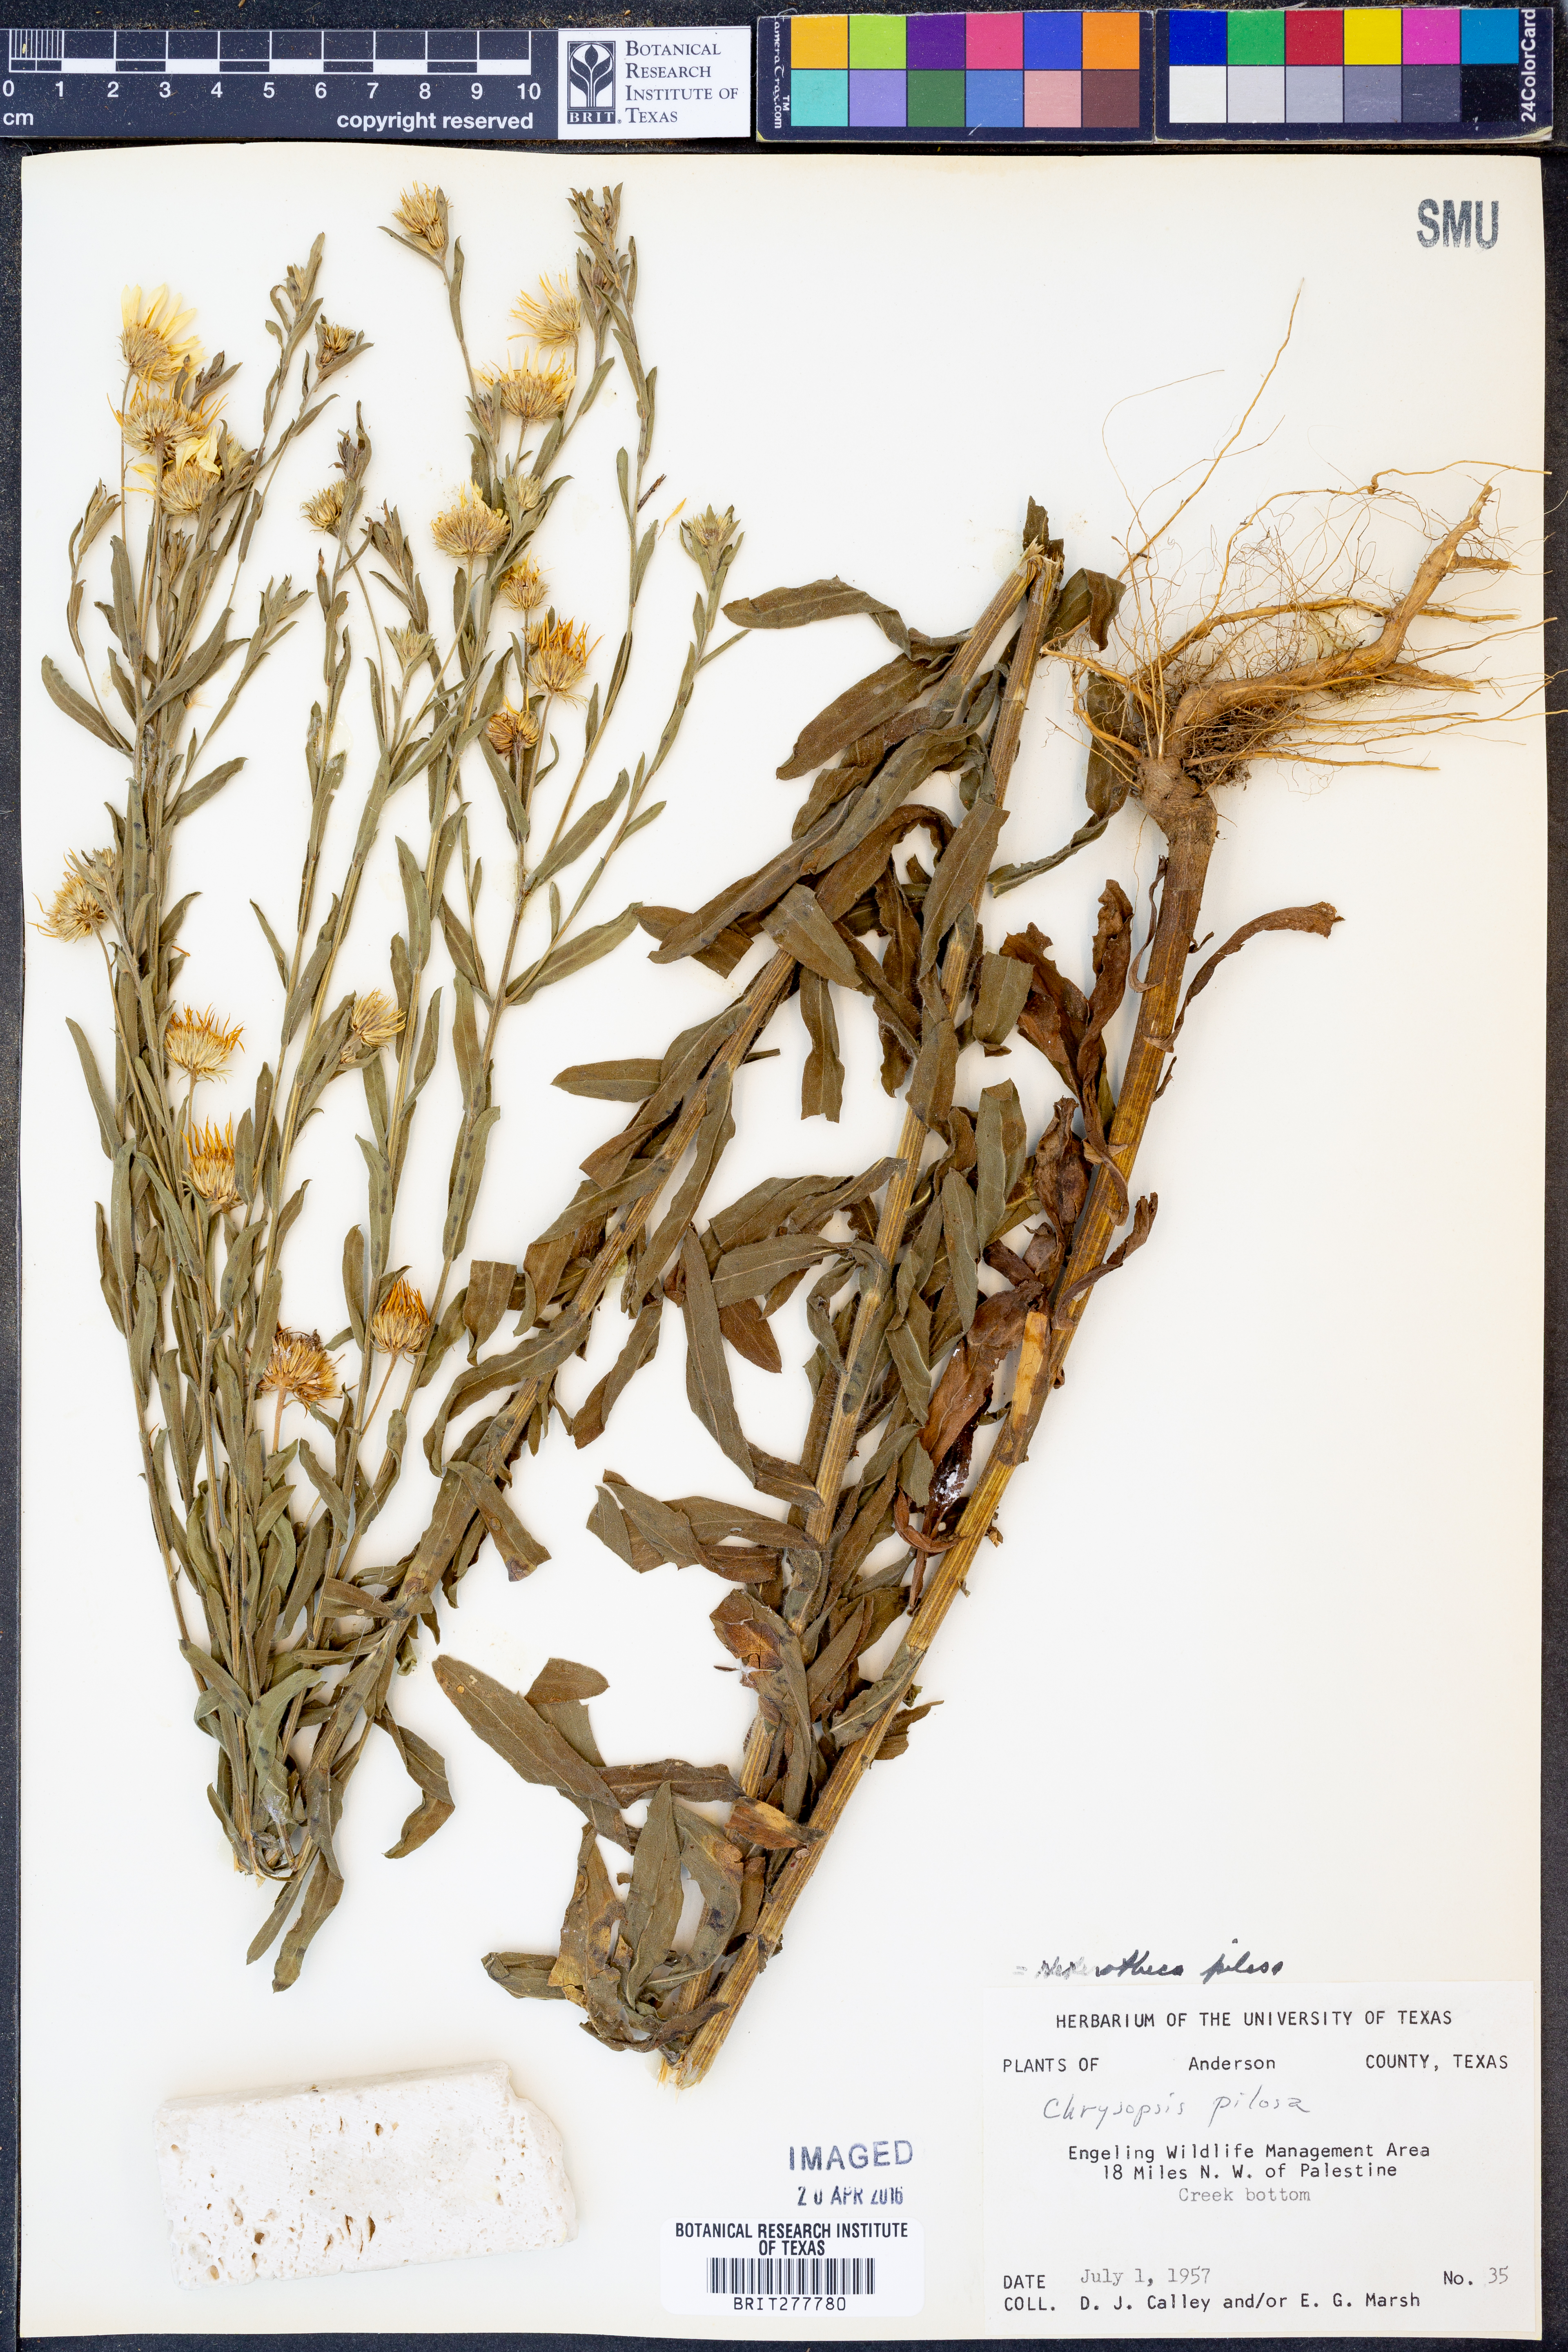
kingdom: Plantae
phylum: Tracheophyta
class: Magnoliopsida
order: Asterales
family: Asteraceae
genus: Bradburia
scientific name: Bradburia pilosa
